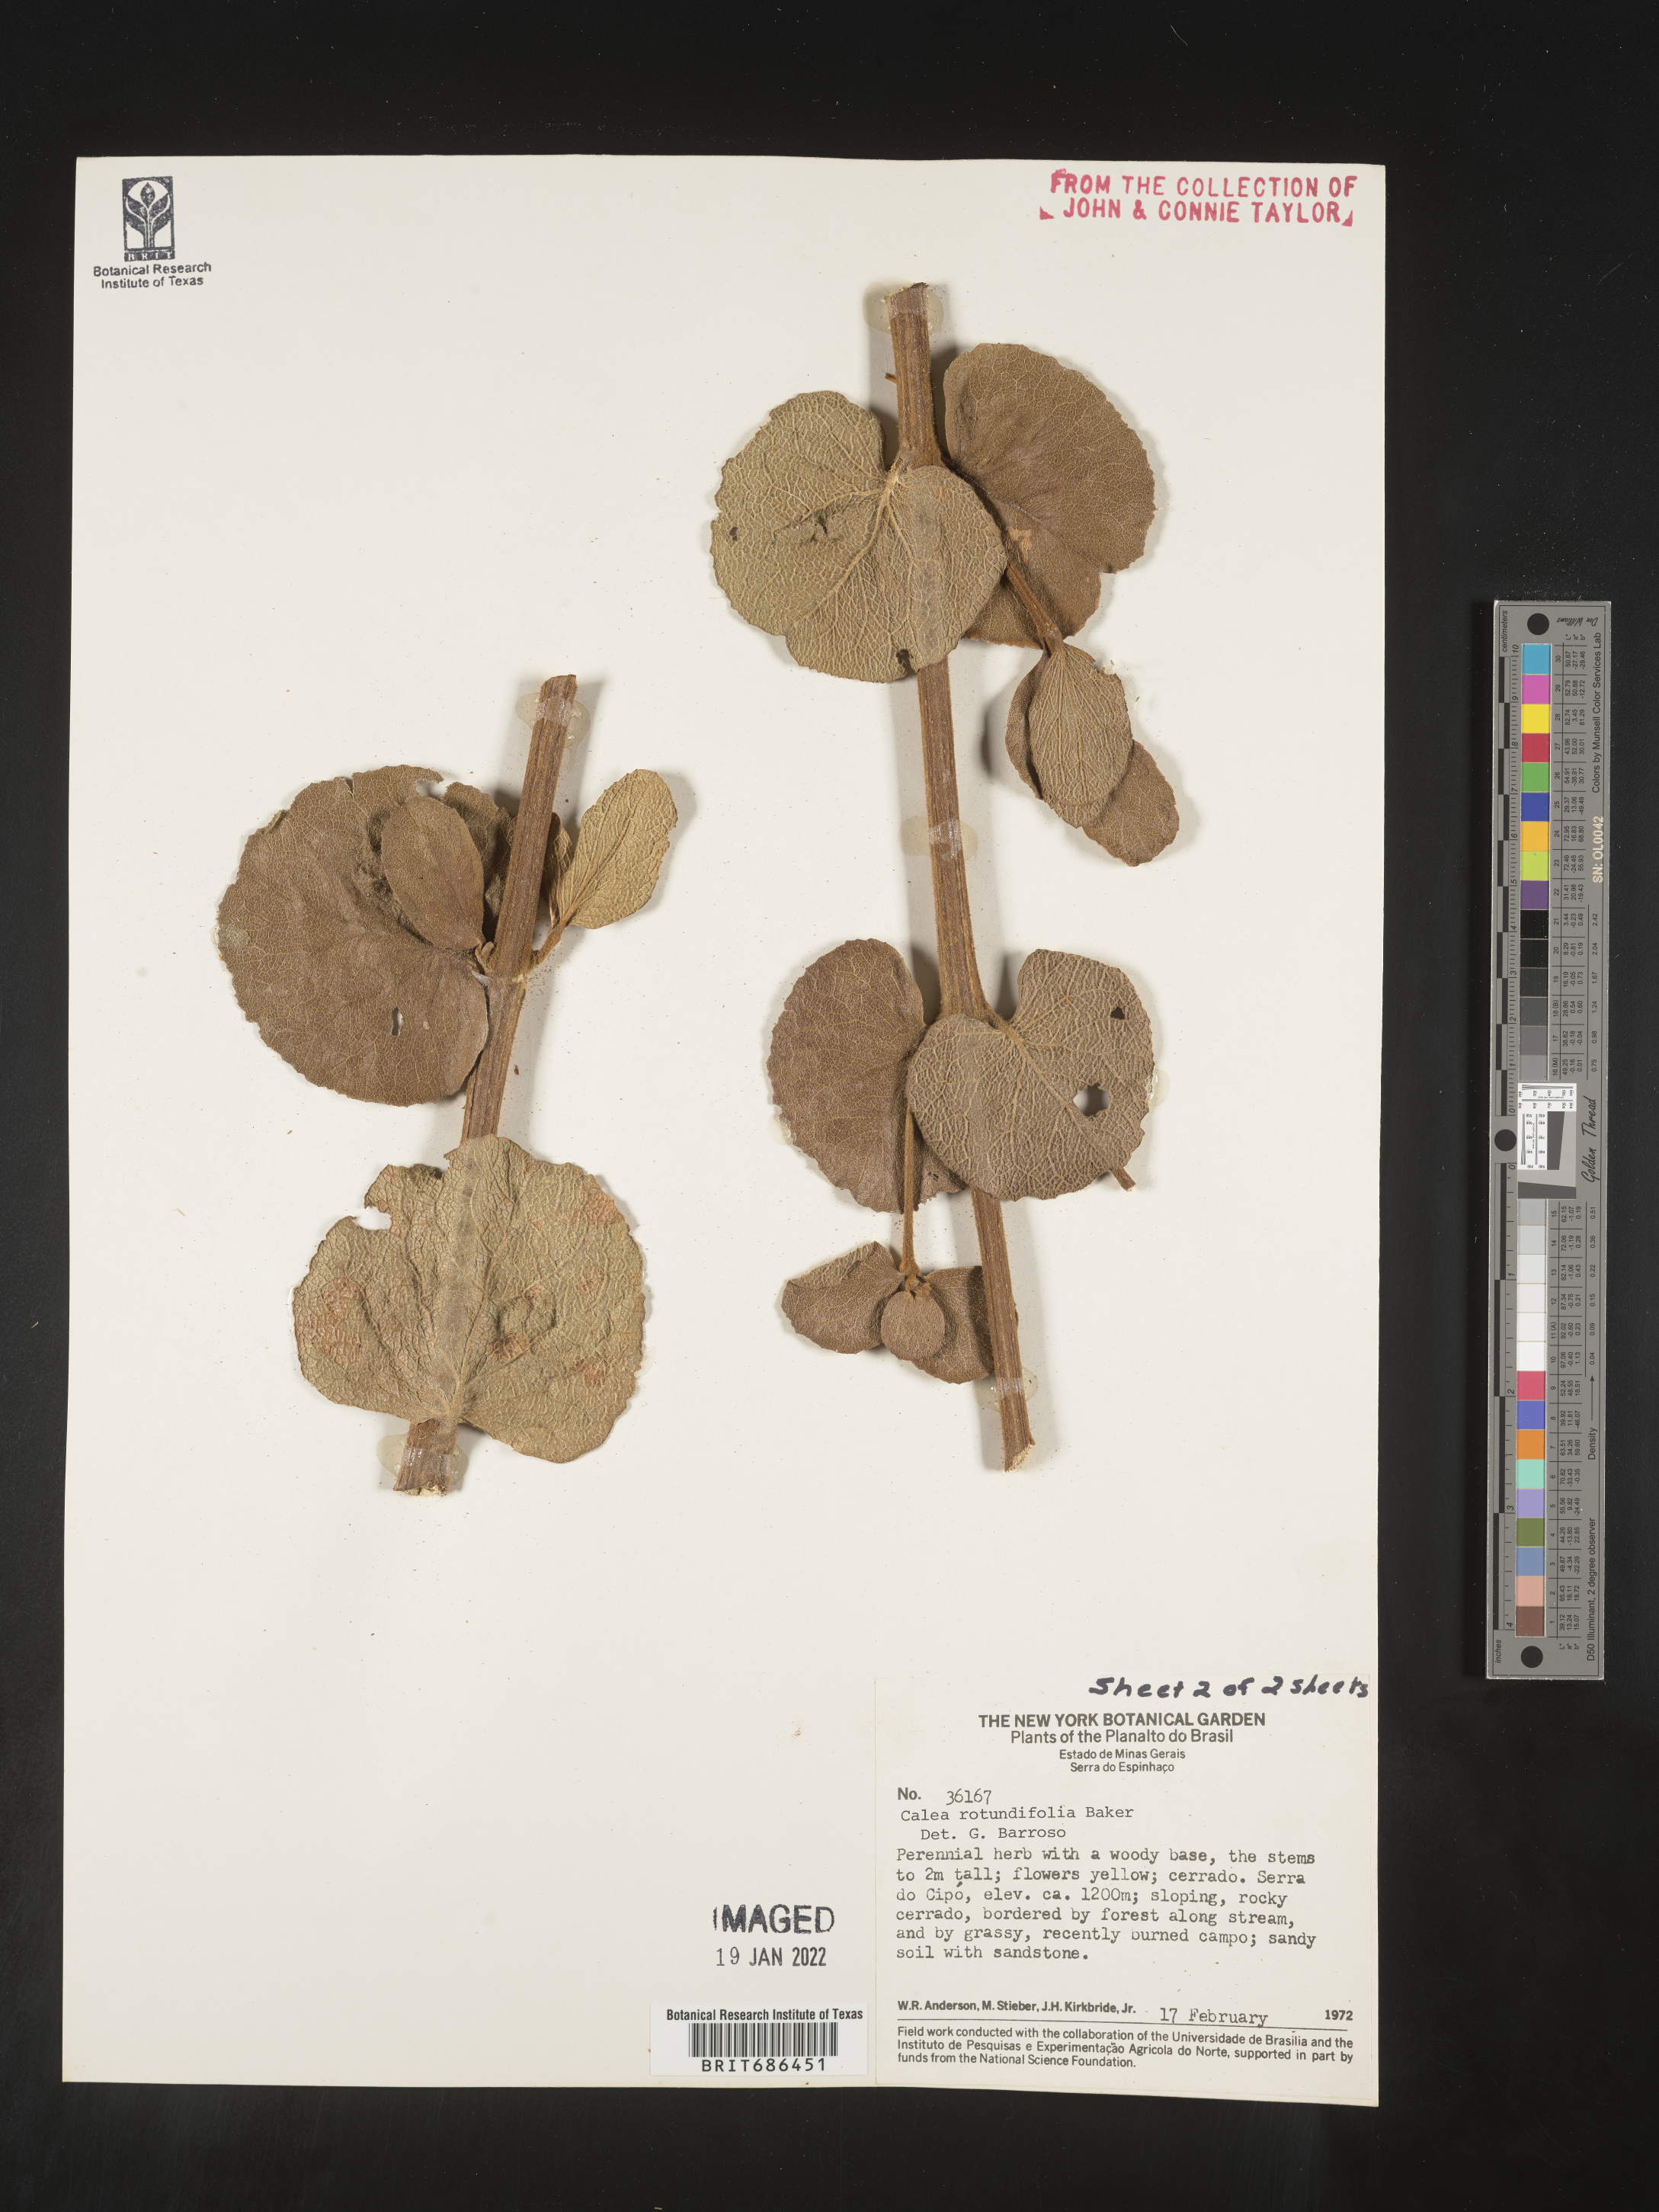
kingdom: Plantae
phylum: Tracheophyta
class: Magnoliopsida
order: Asterales
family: Asteraceae
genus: Calea
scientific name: Calea
